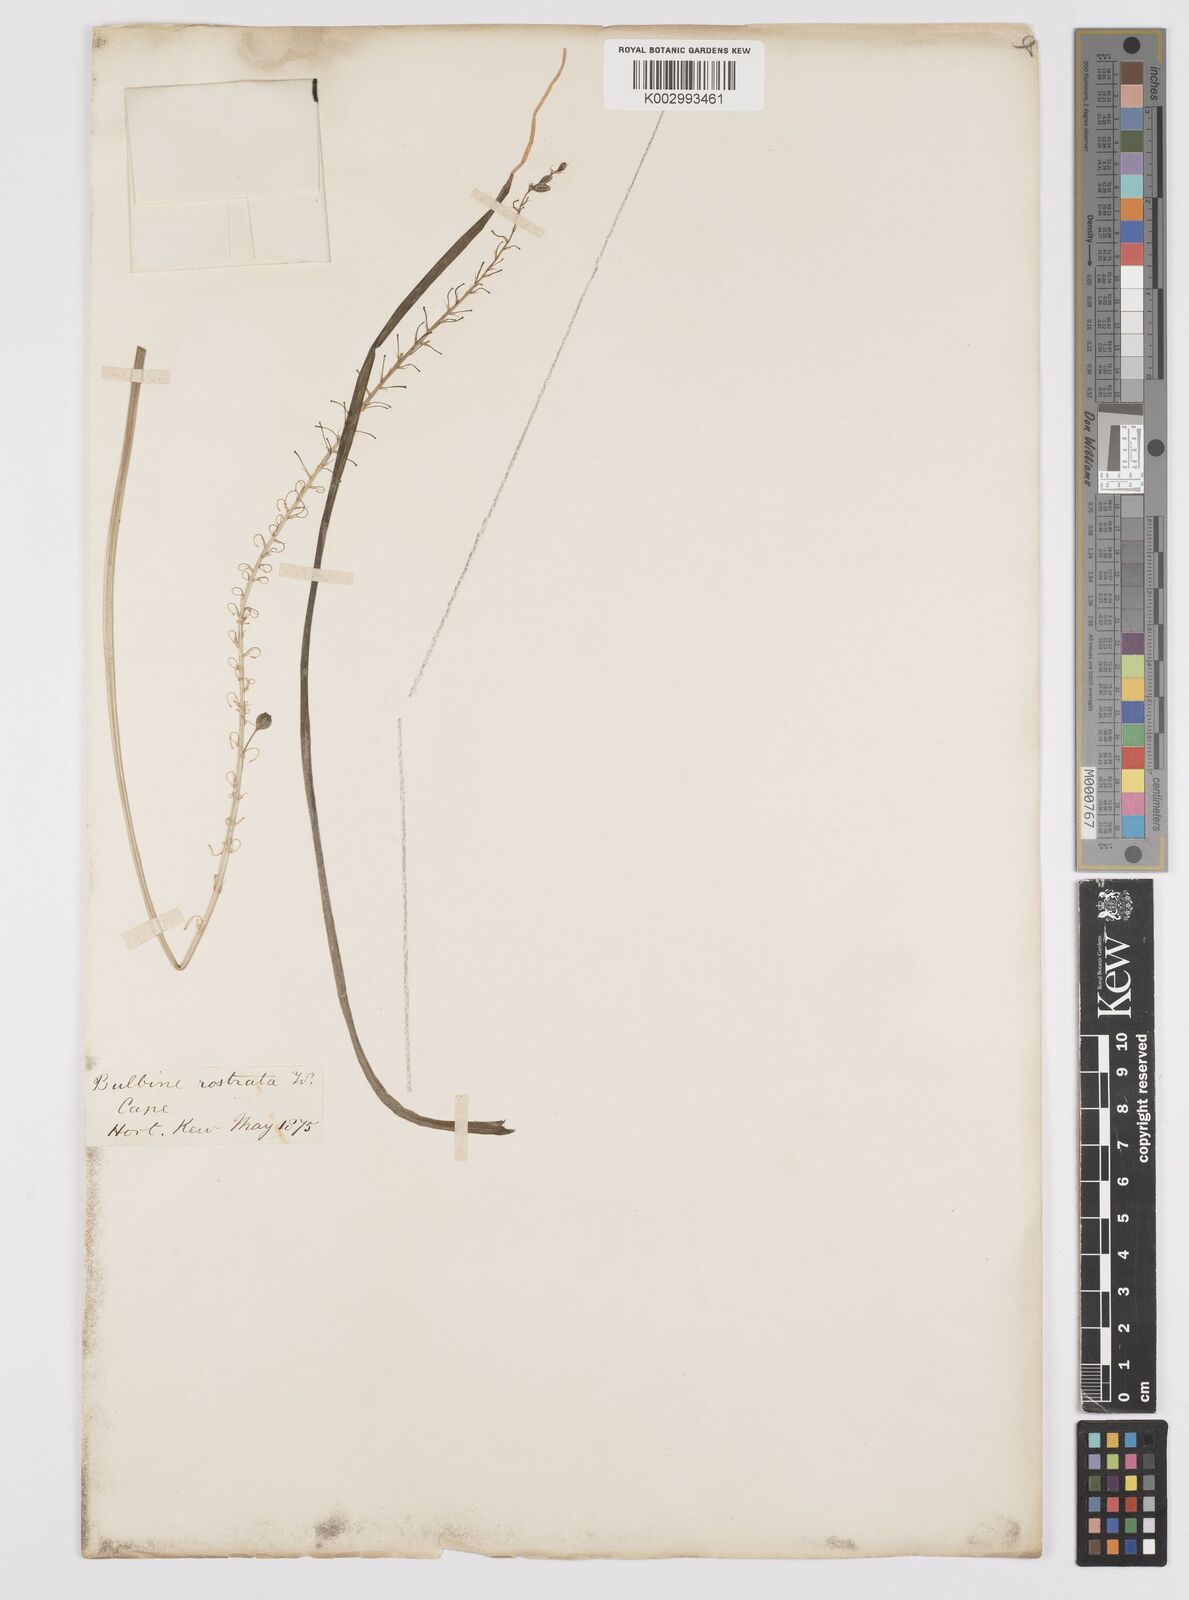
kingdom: Plantae
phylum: Tracheophyta
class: Liliopsida
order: Asparagales
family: Asphodelaceae
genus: Bulbine
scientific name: Bulbine frutescens
